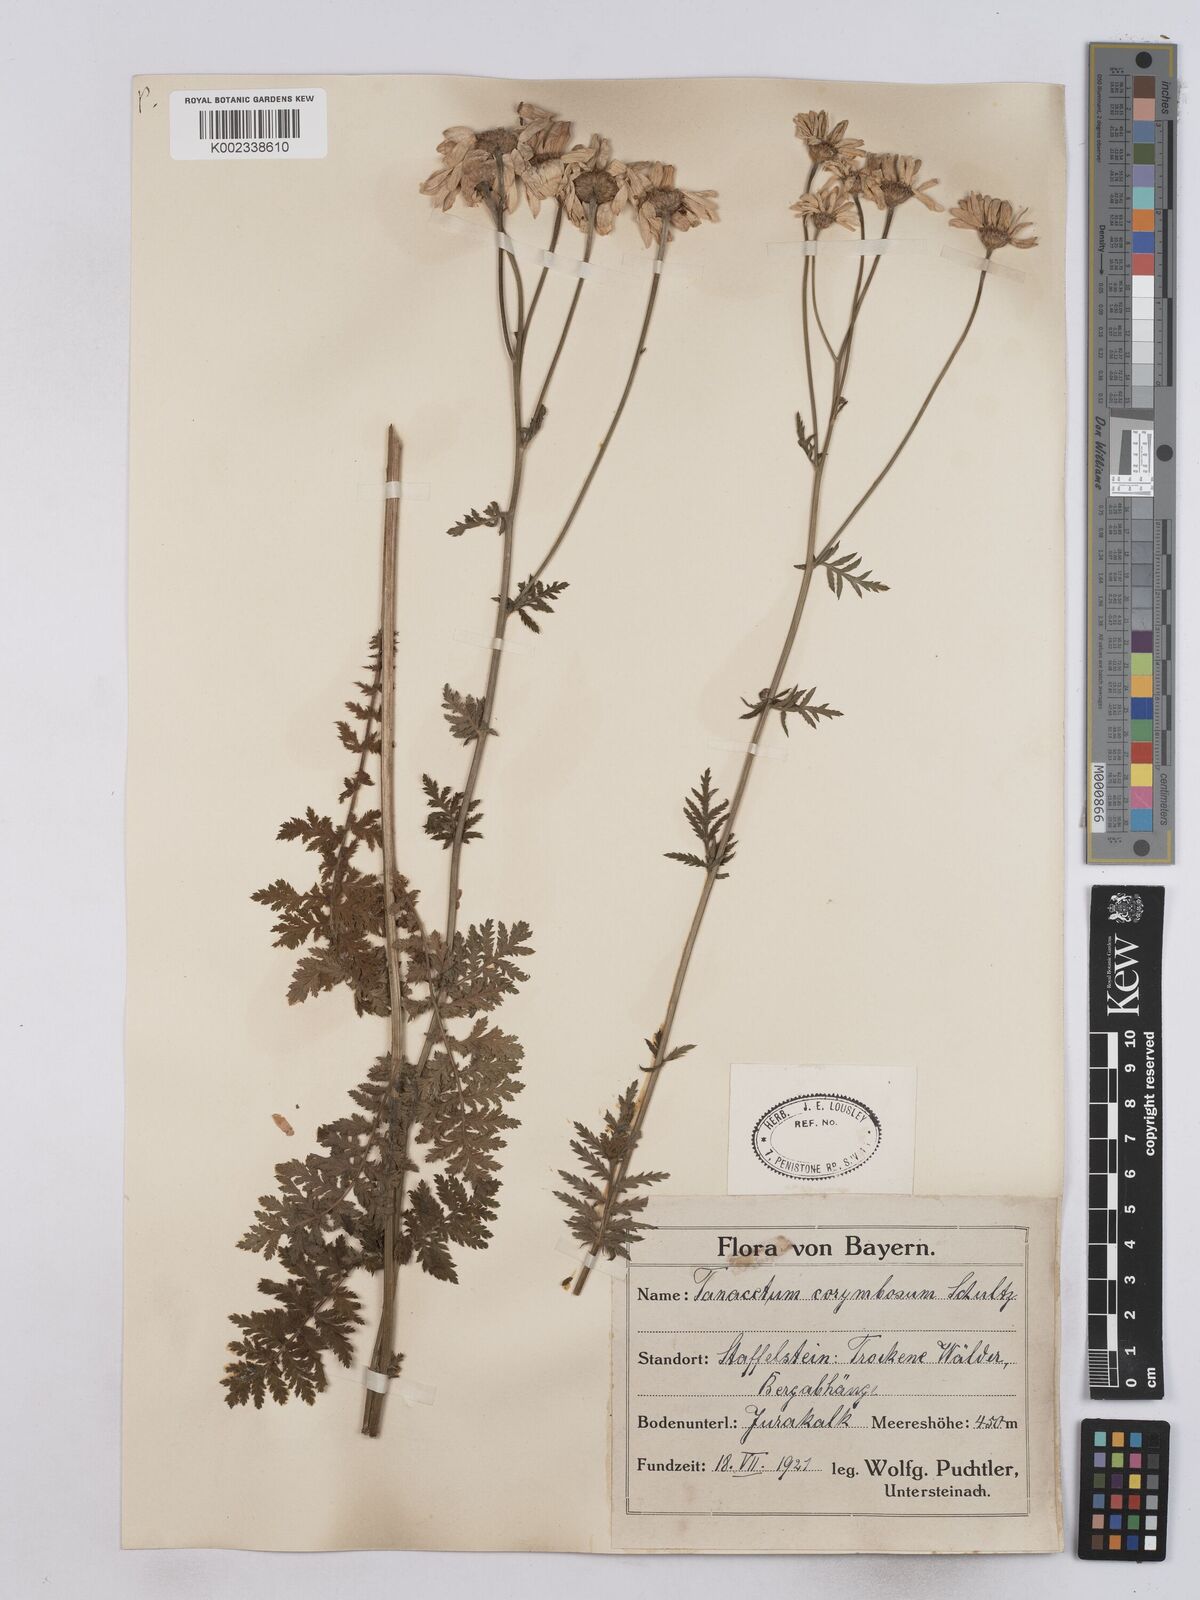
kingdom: Plantae
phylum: Tracheophyta
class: Magnoliopsida
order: Asterales
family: Asteraceae
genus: Tanacetum
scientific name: Tanacetum corymbosum
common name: Scentless feverfew
